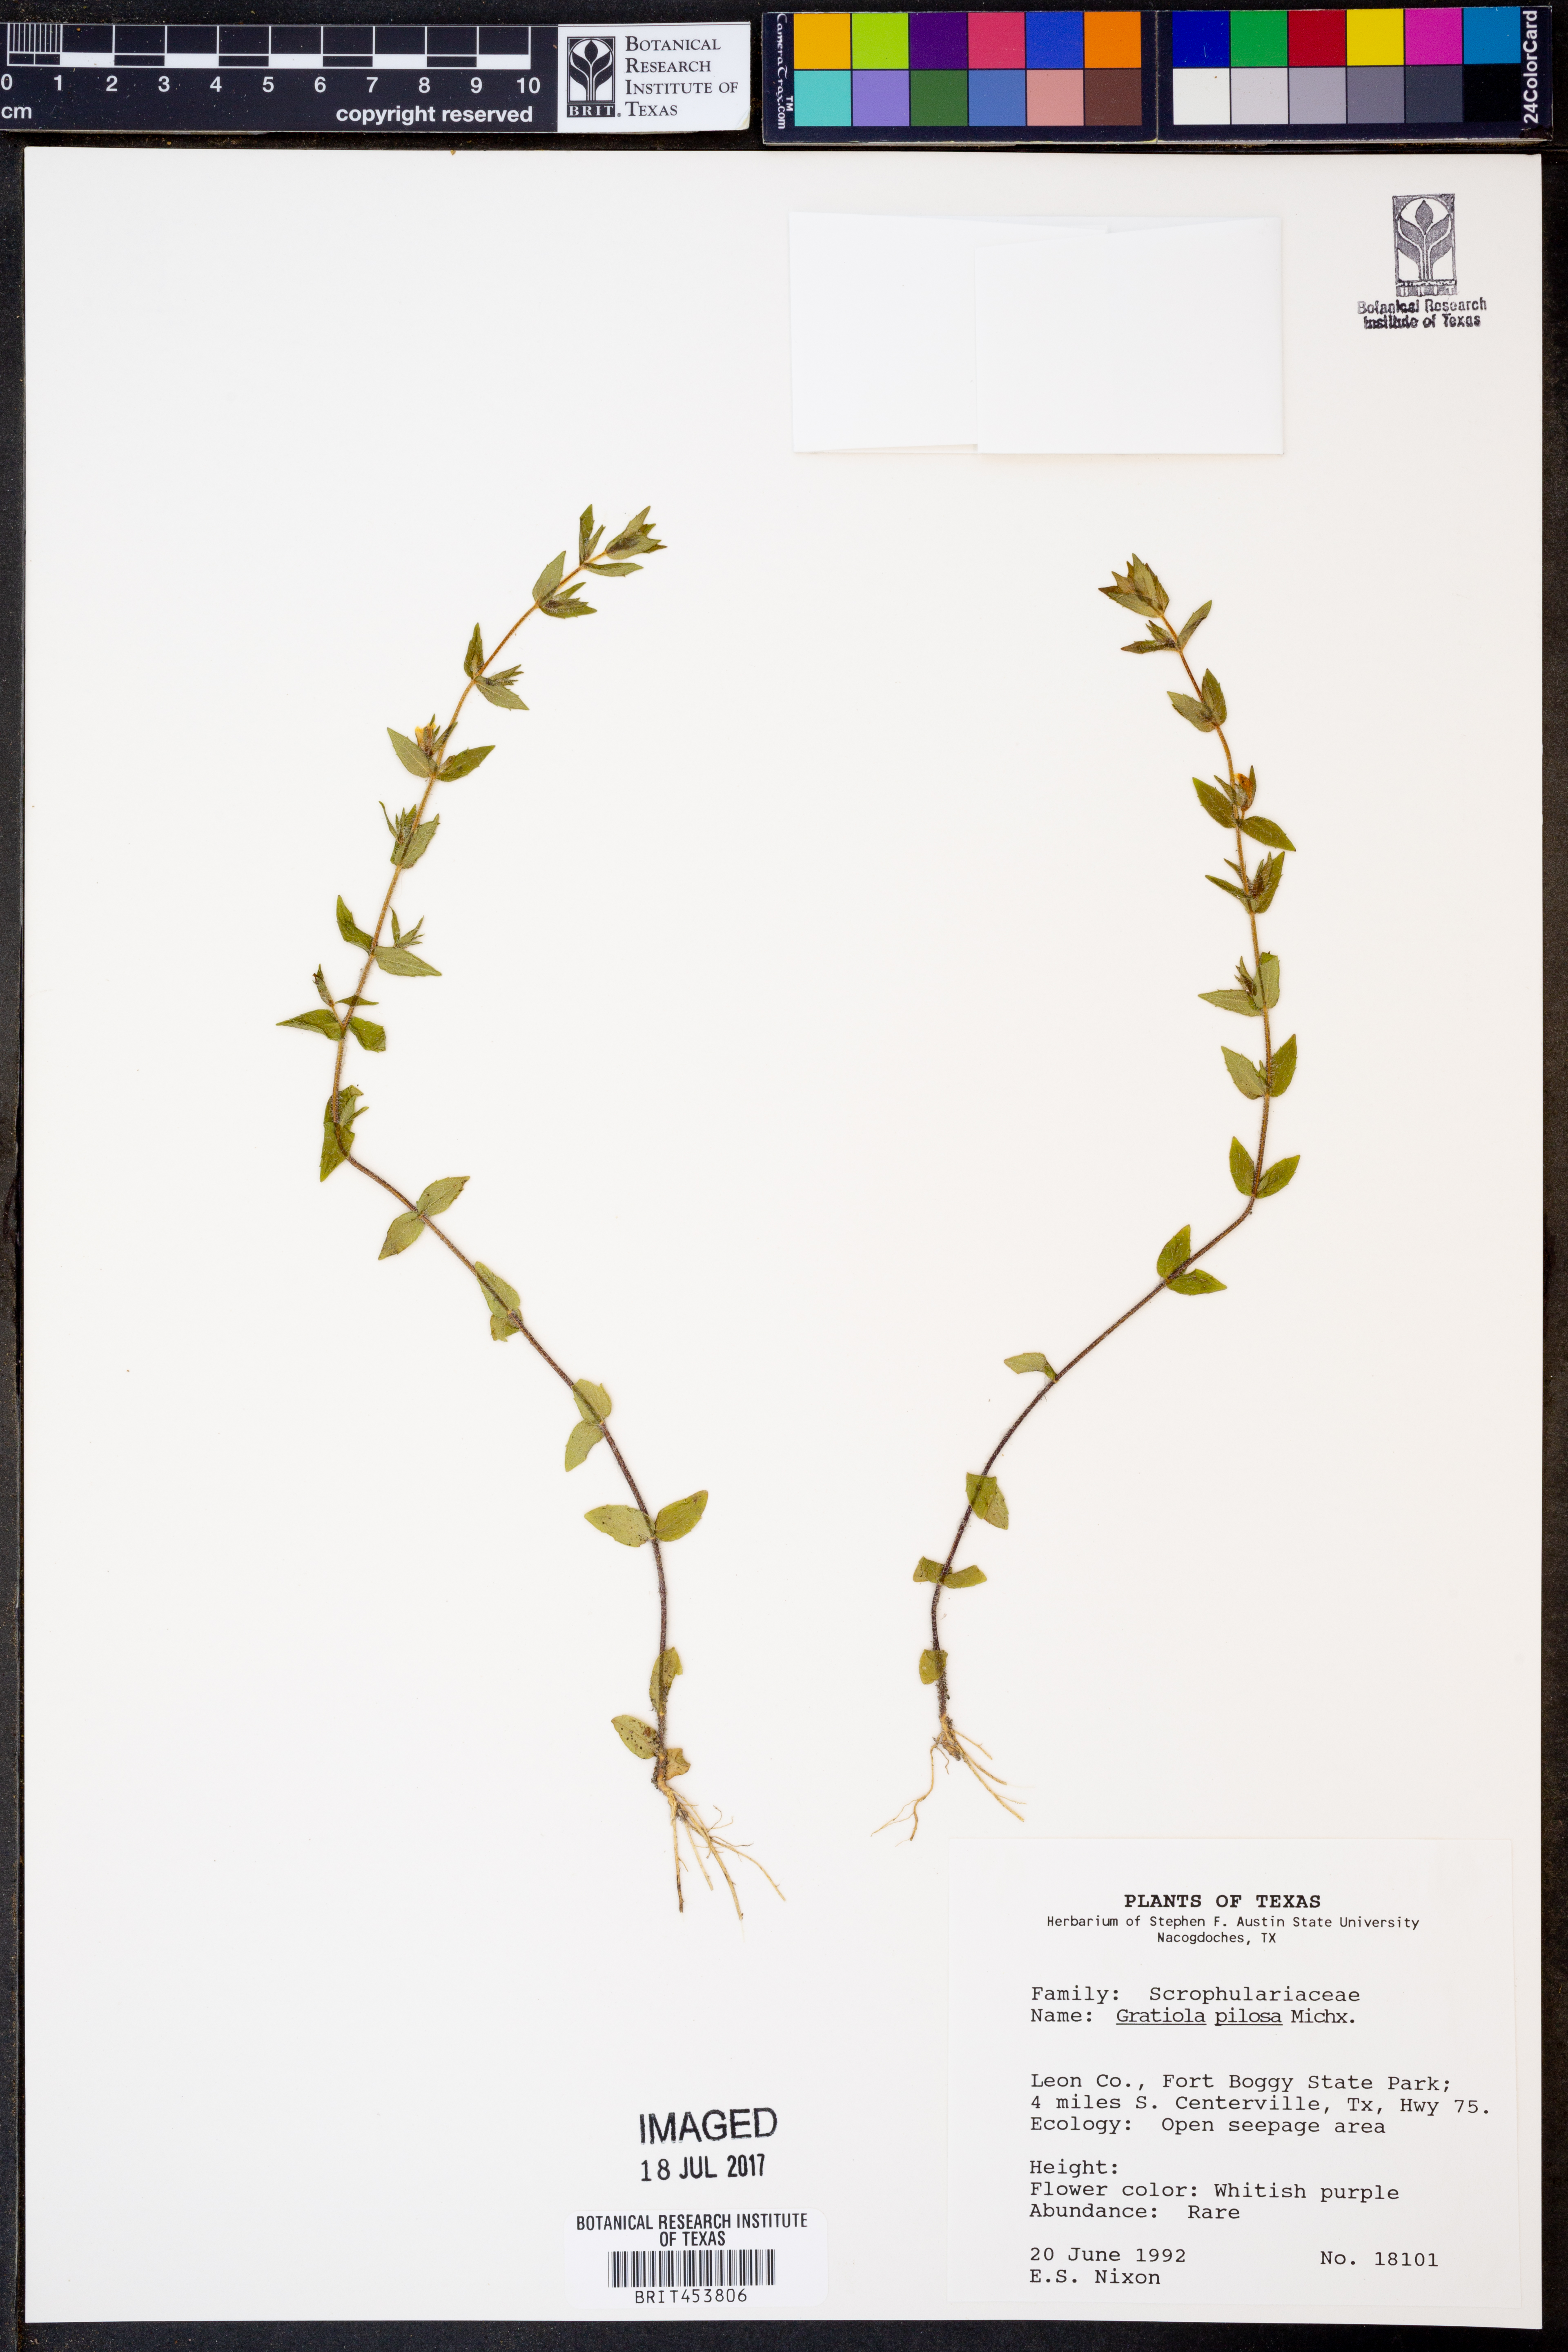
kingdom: Plantae
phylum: Tracheophyta
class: Magnoliopsida
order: Lamiales
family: Plantaginaceae
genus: Gratiola
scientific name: Gratiola pilosa
